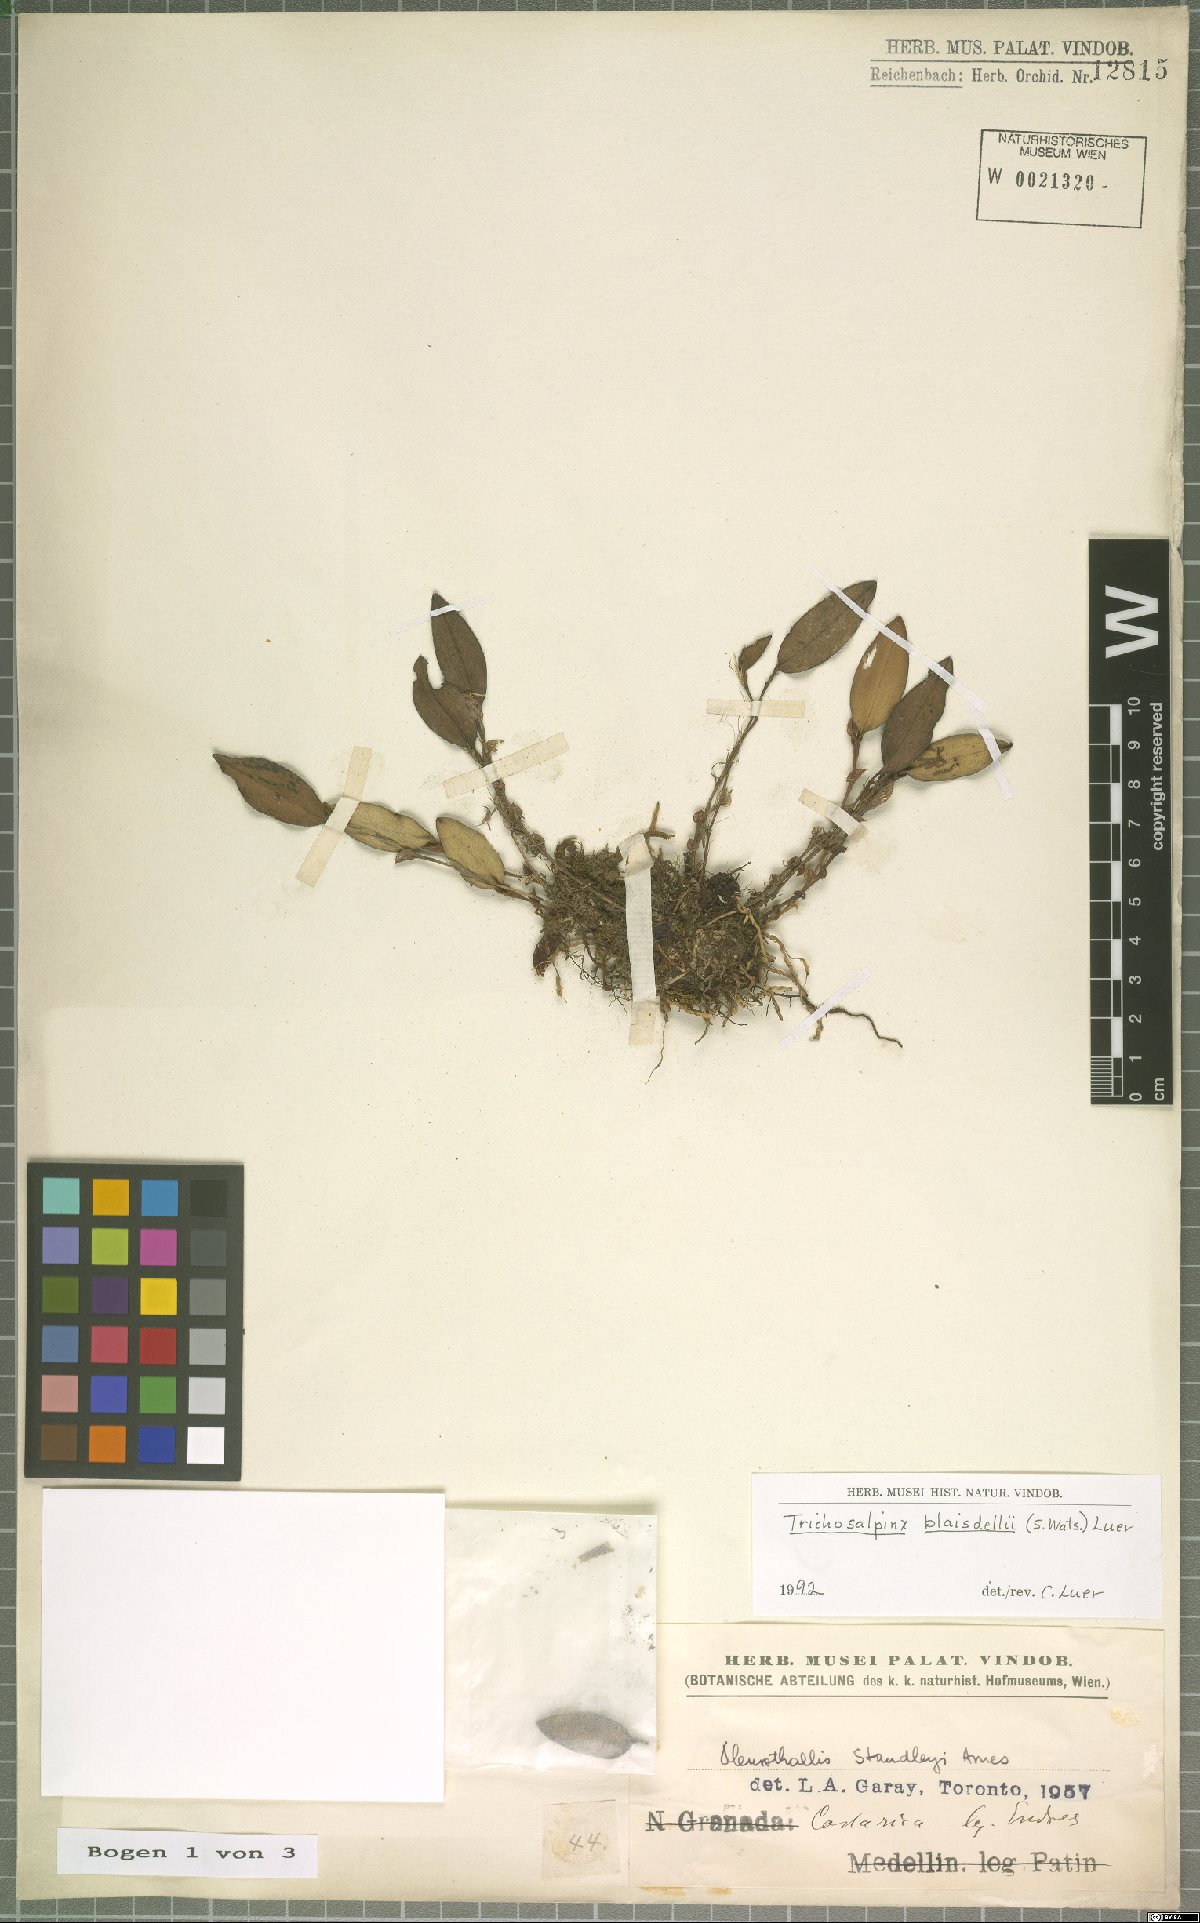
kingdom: Plantae
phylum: Tracheophyta
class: Liliopsida
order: Asparagales
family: Orchidaceae
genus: Trichosalpinx
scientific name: Trichosalpinx blaisdellii
